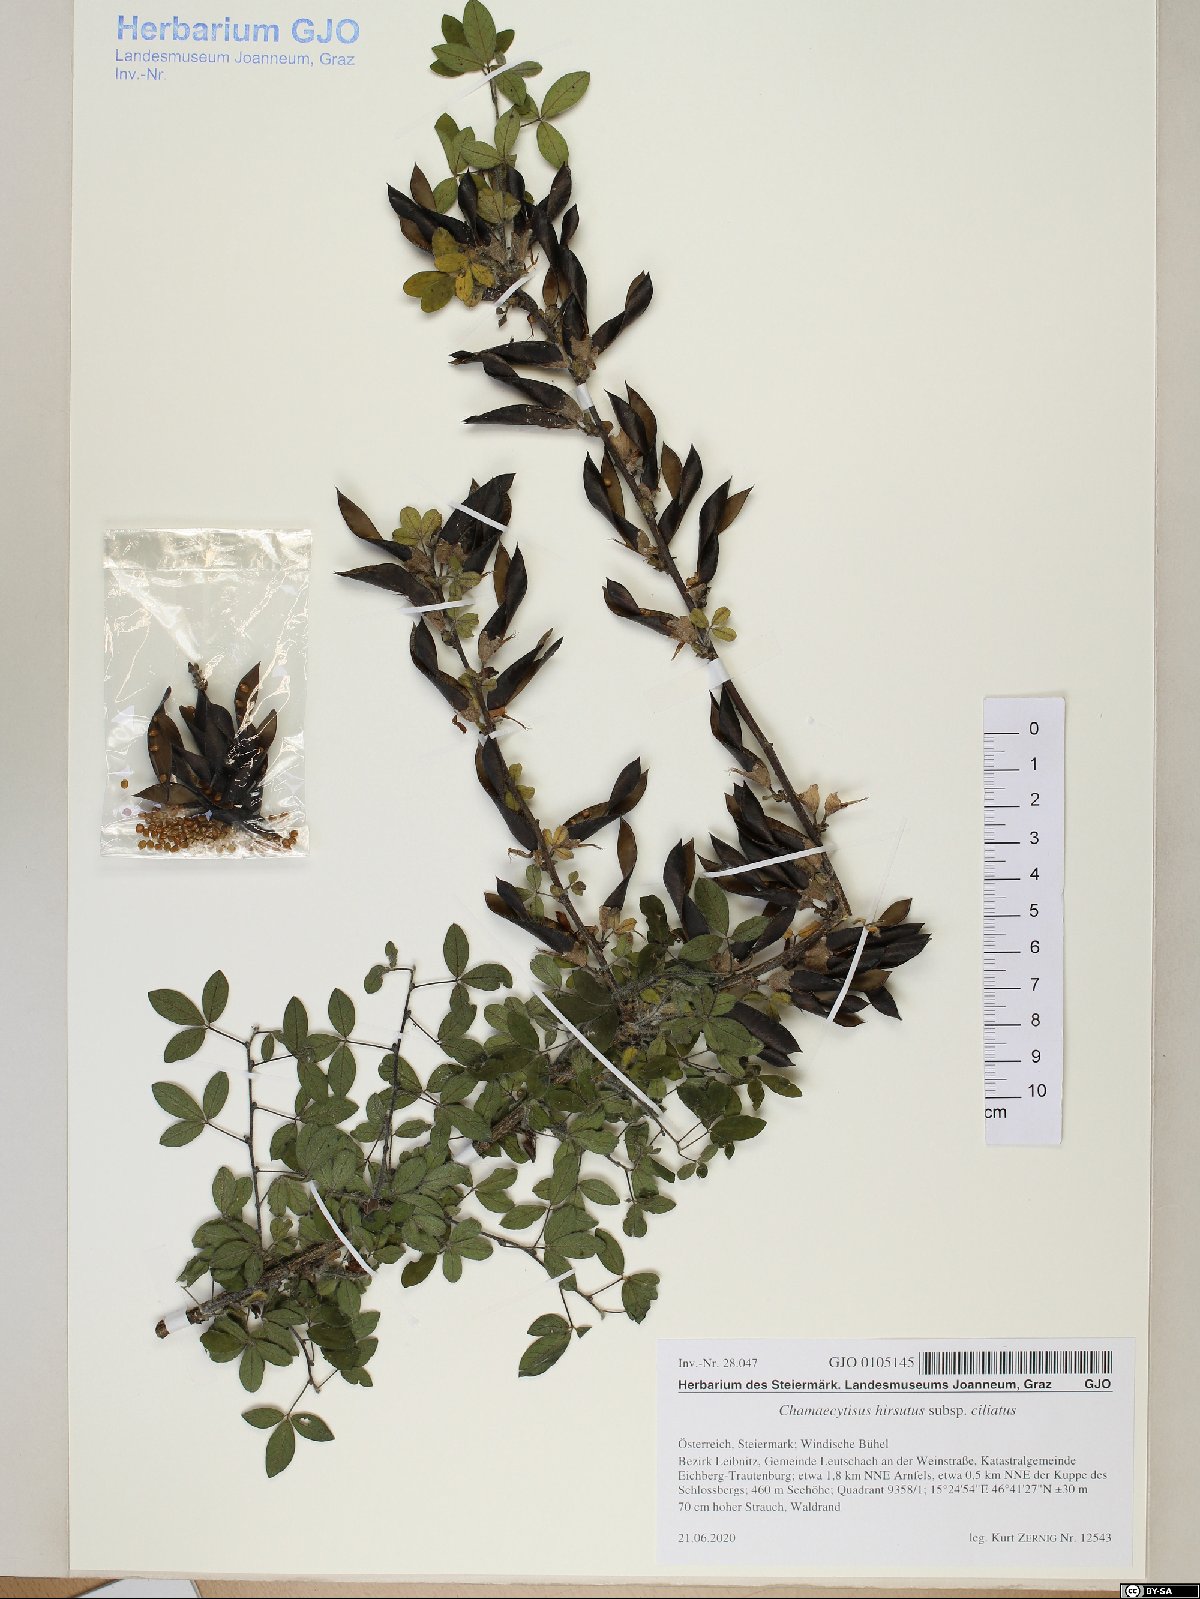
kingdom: Plantae
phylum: Tracheophyta
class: Magnoliopsida
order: Fabales
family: Fabaceae
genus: Chamaecytisus
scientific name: Chamaecytisus hirsutus
